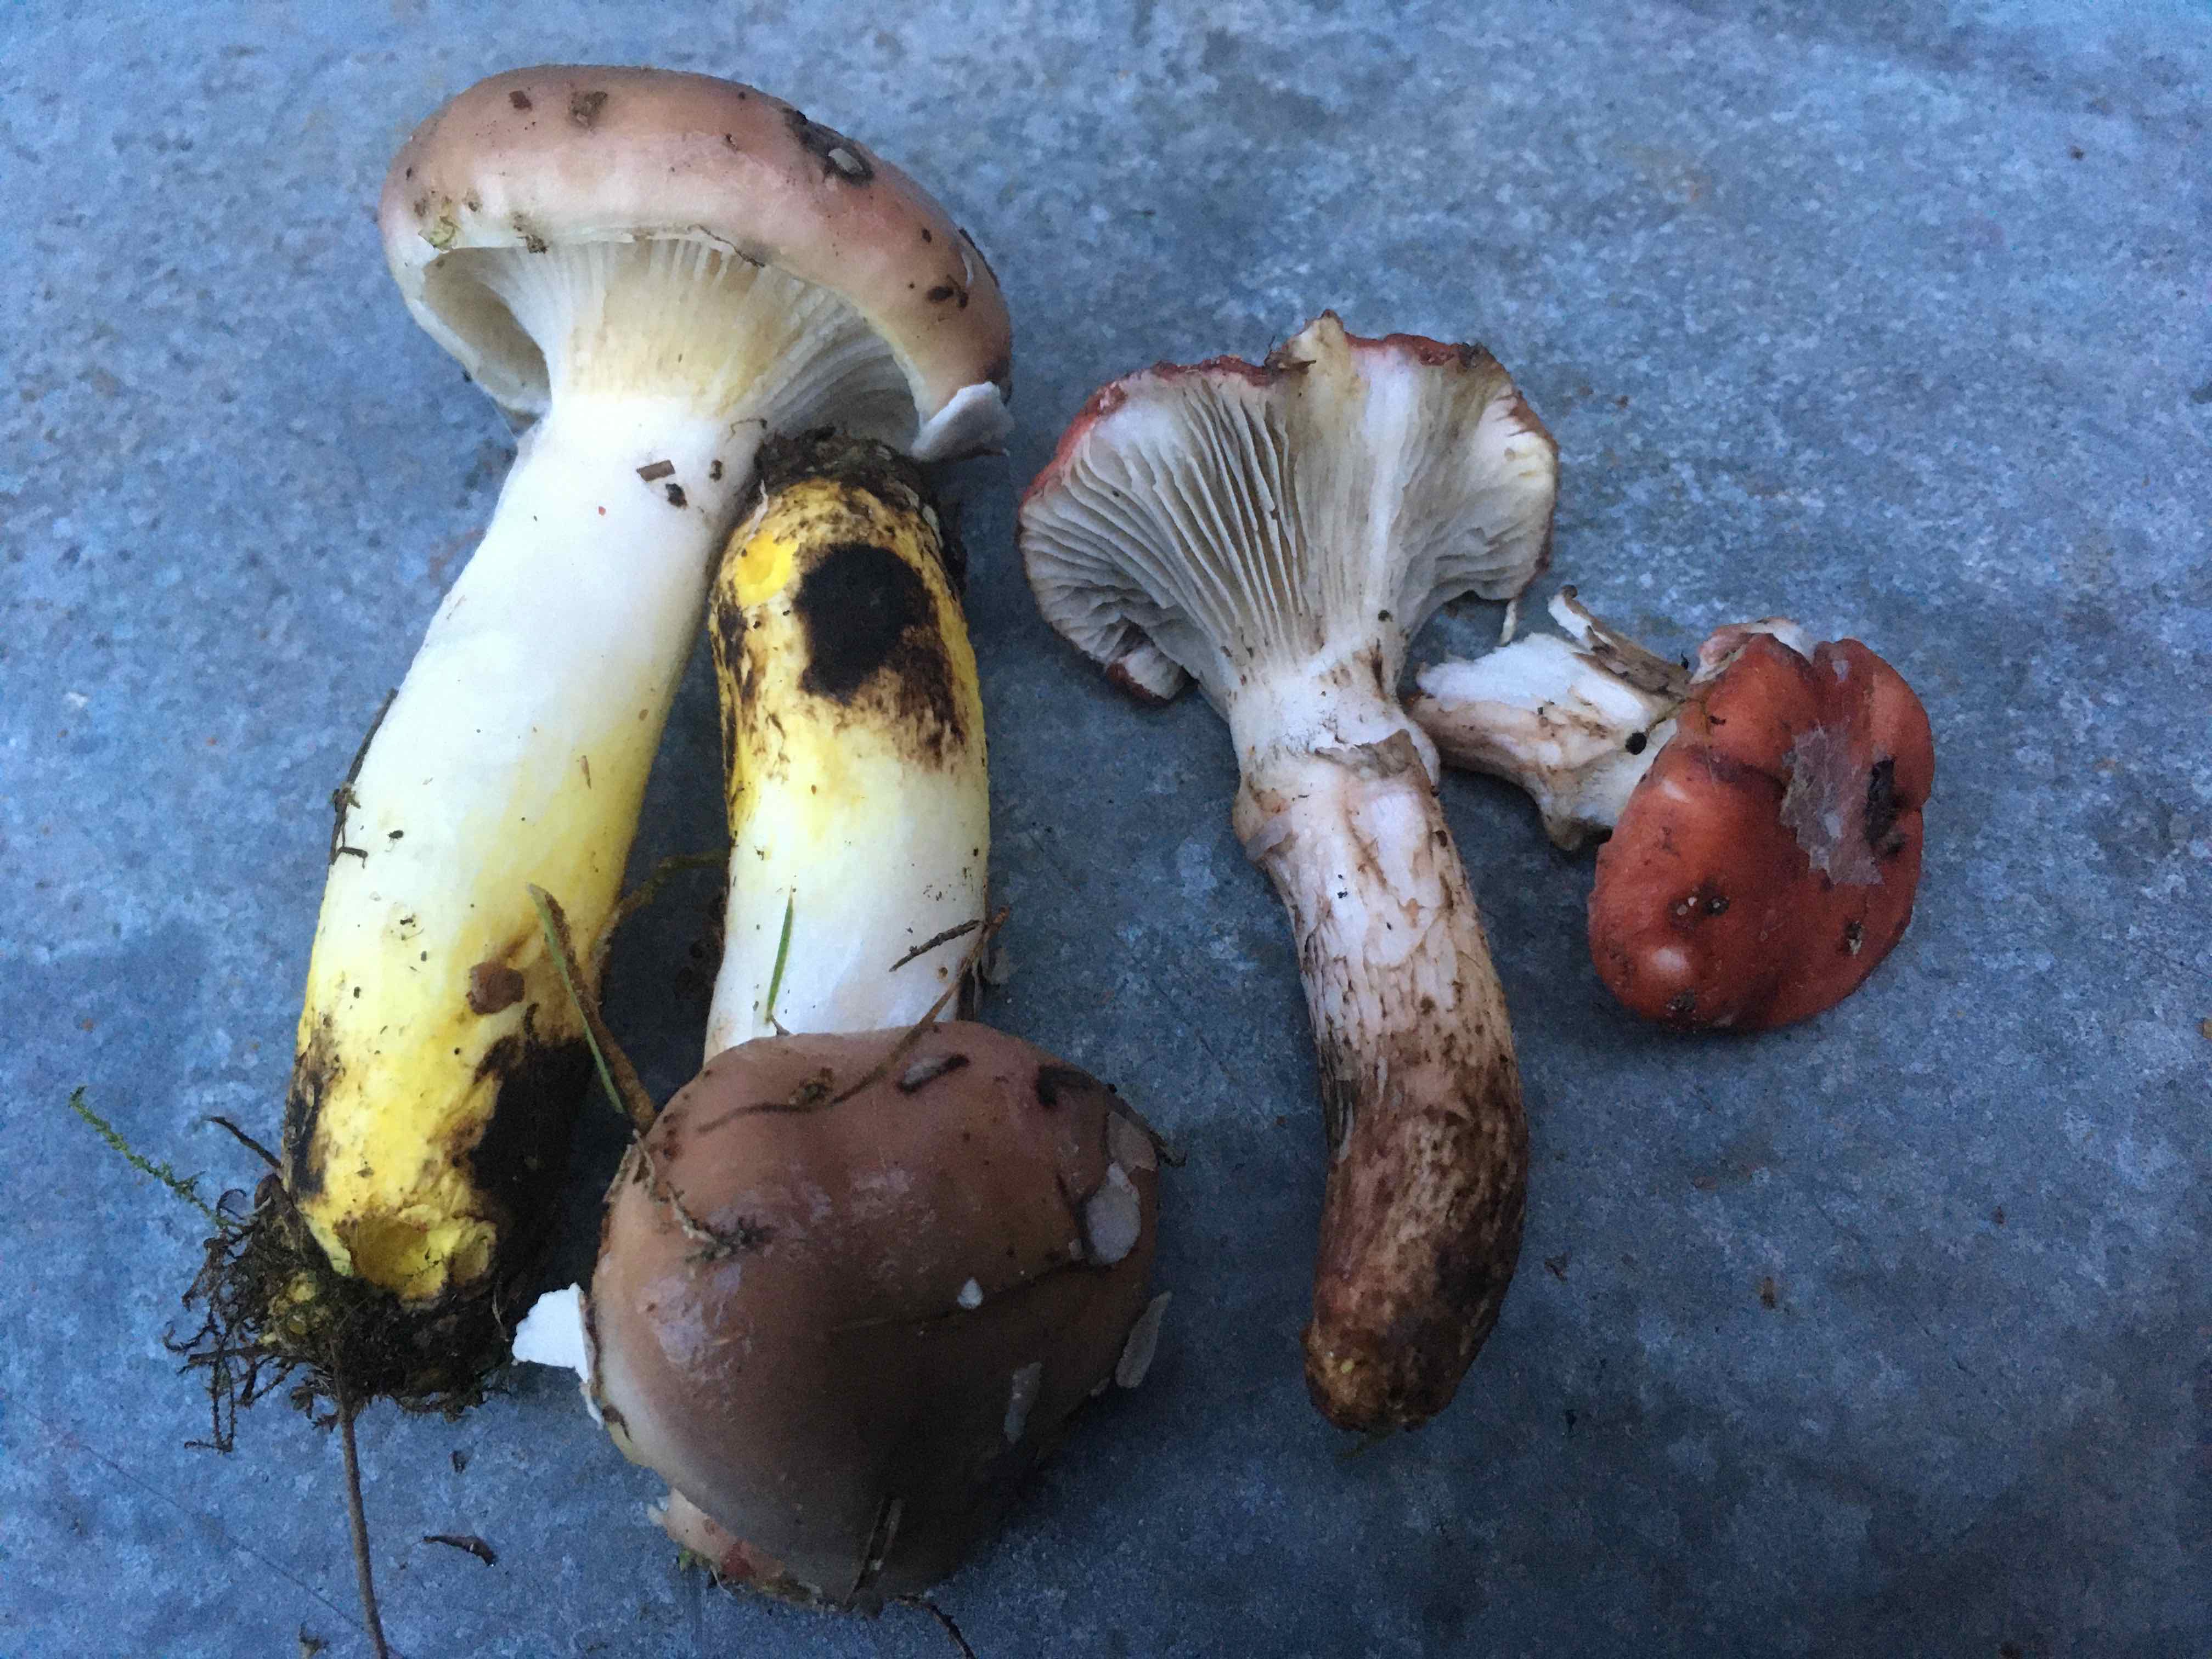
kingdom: Fungi
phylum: Basidiomycota
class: Agaricomycetes
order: Boletales
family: Gomphidiaceae
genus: Gomphidius
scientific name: Gomphidius glutinosus
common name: grå slimslør
